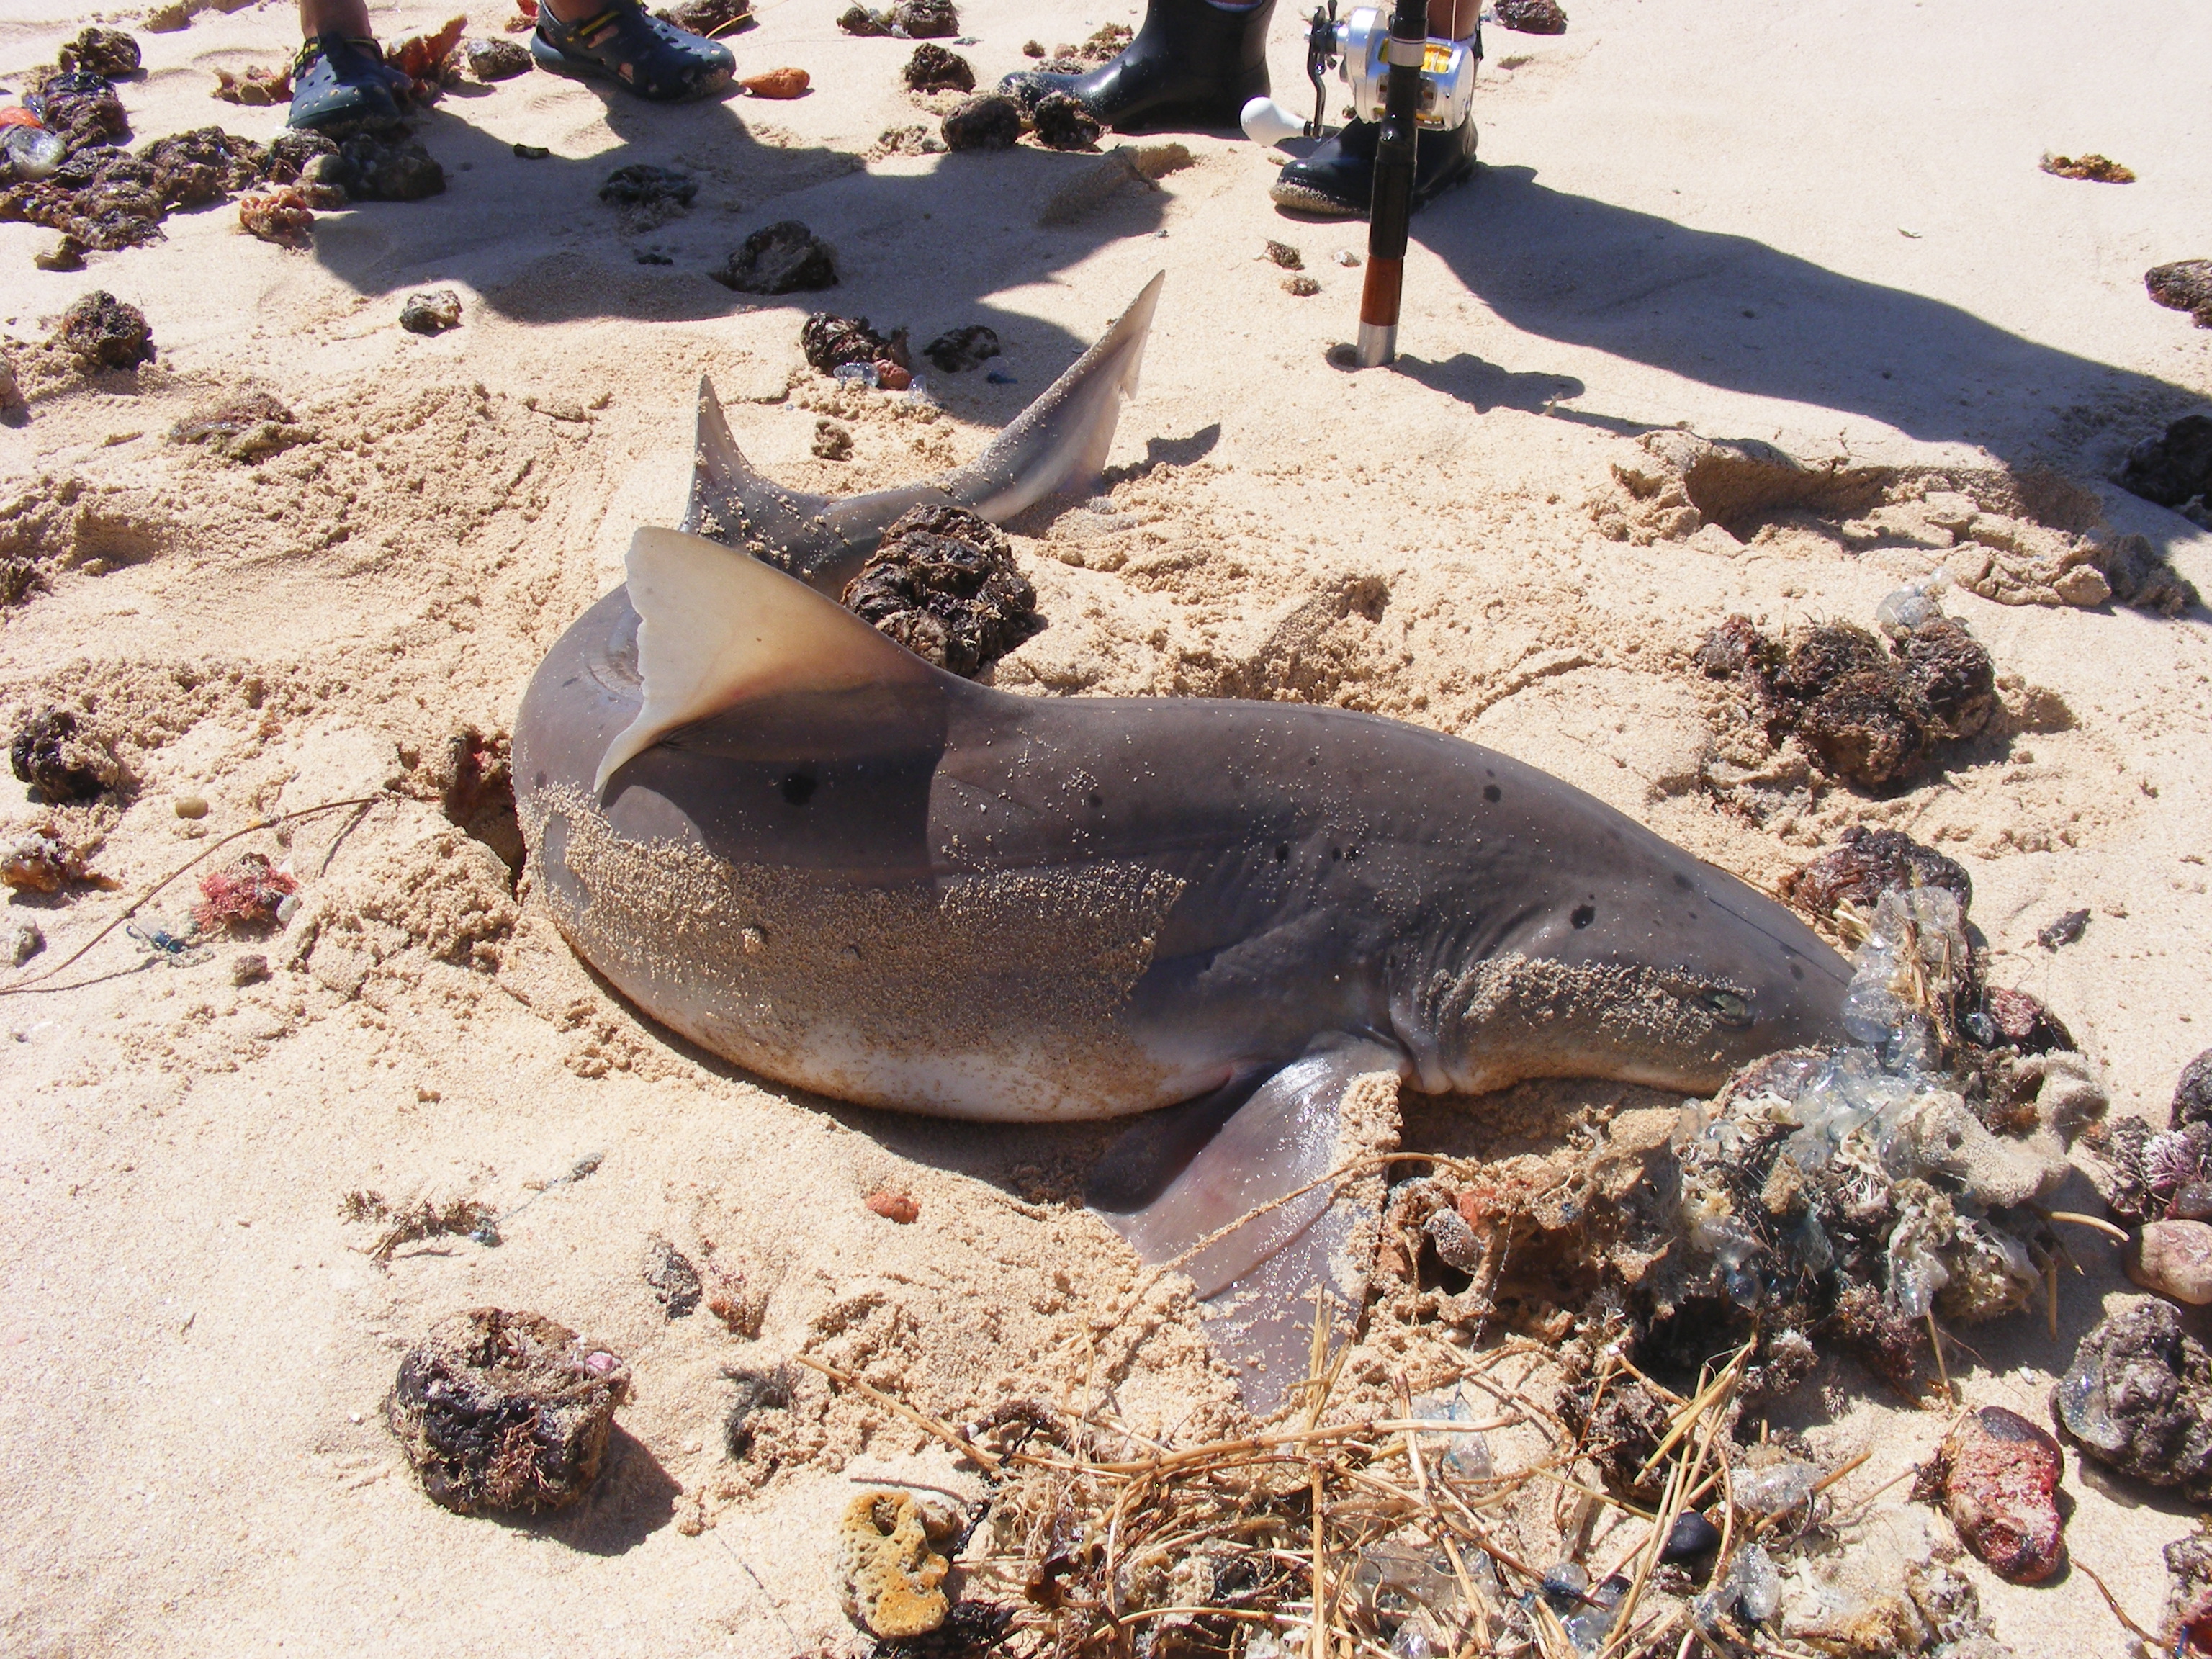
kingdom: Animalia
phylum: Chordata
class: Elasmobranchii
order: Carcharhiniformes
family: Triakidae
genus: Triakis
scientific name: Triakis megalopterus
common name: Spotted gully shark
